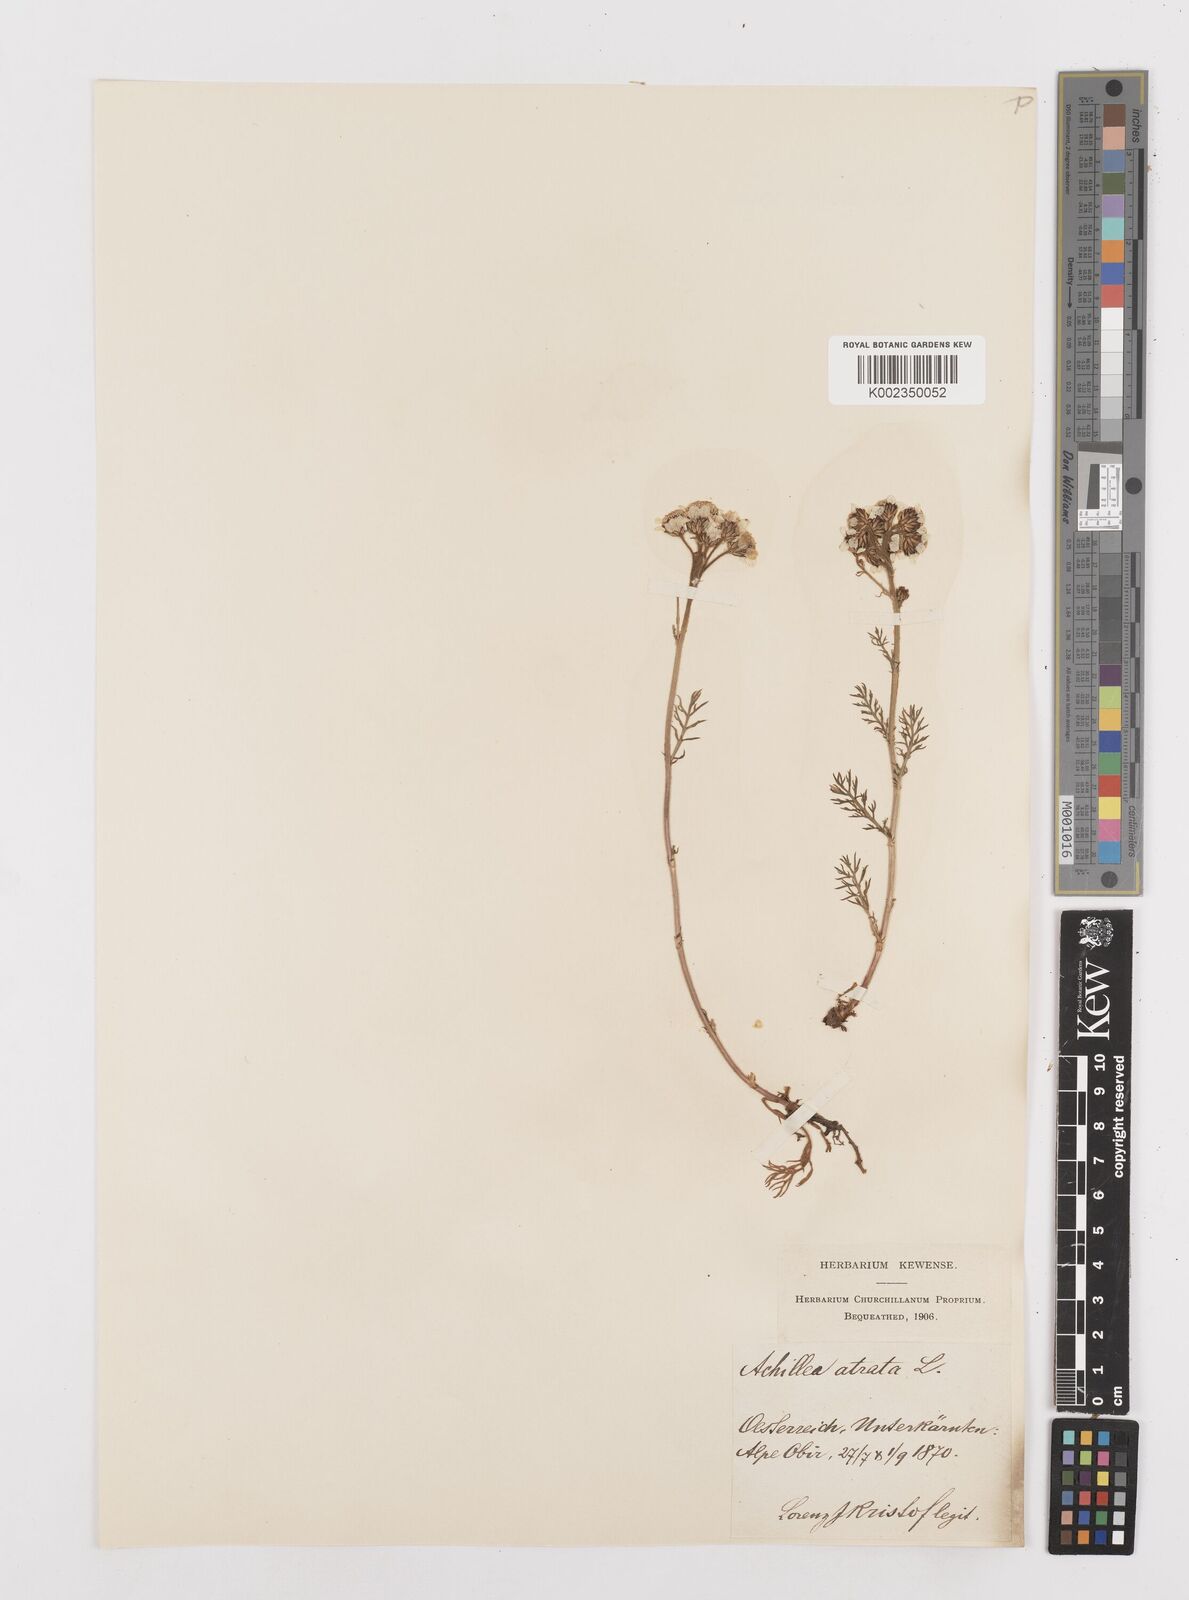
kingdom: Plantae
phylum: Tracheophyta
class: Magnoliopsida
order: Asterales
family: Asteraceae
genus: Achillea
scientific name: Achillea atrata
